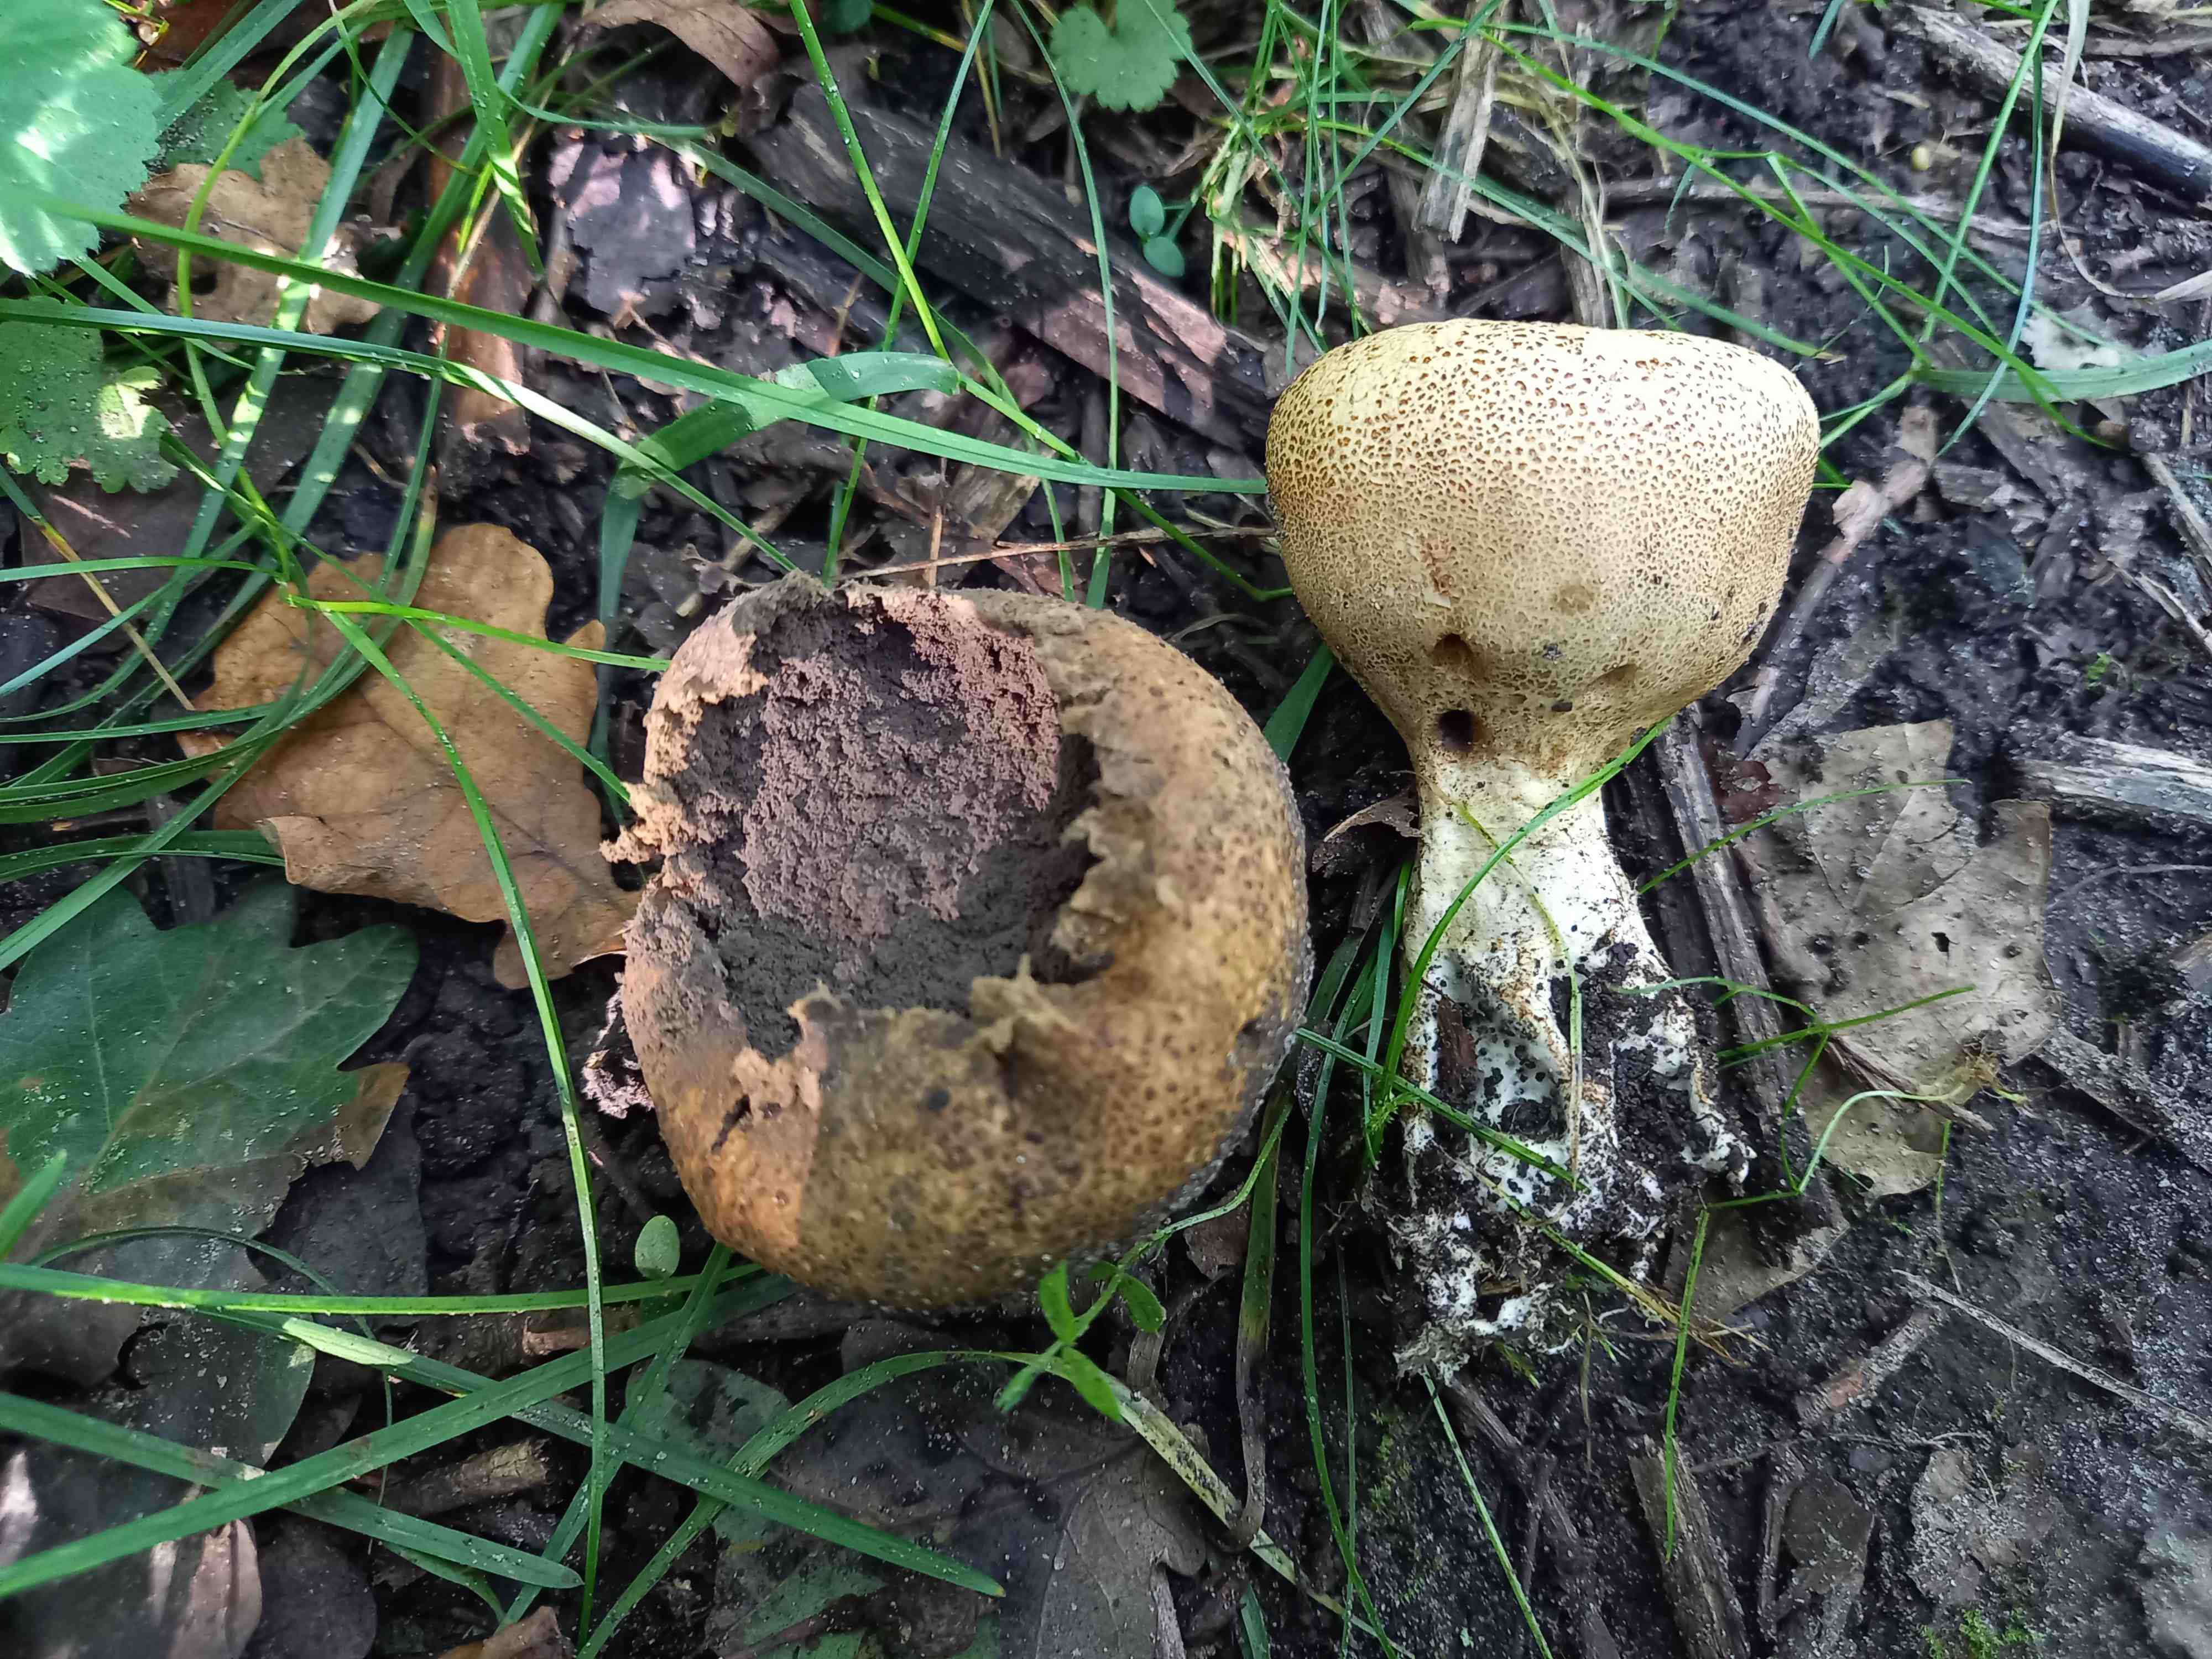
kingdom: Fungi
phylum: Basidiomycota
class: Agaricomycetes
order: Boletales
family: Sclerodermataceae
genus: Scleroderma
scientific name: Scleroderma verrucosum
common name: stilket bruskbold
